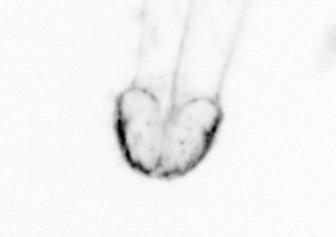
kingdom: Animalia
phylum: Chaetognatha
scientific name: Chaetognatha
